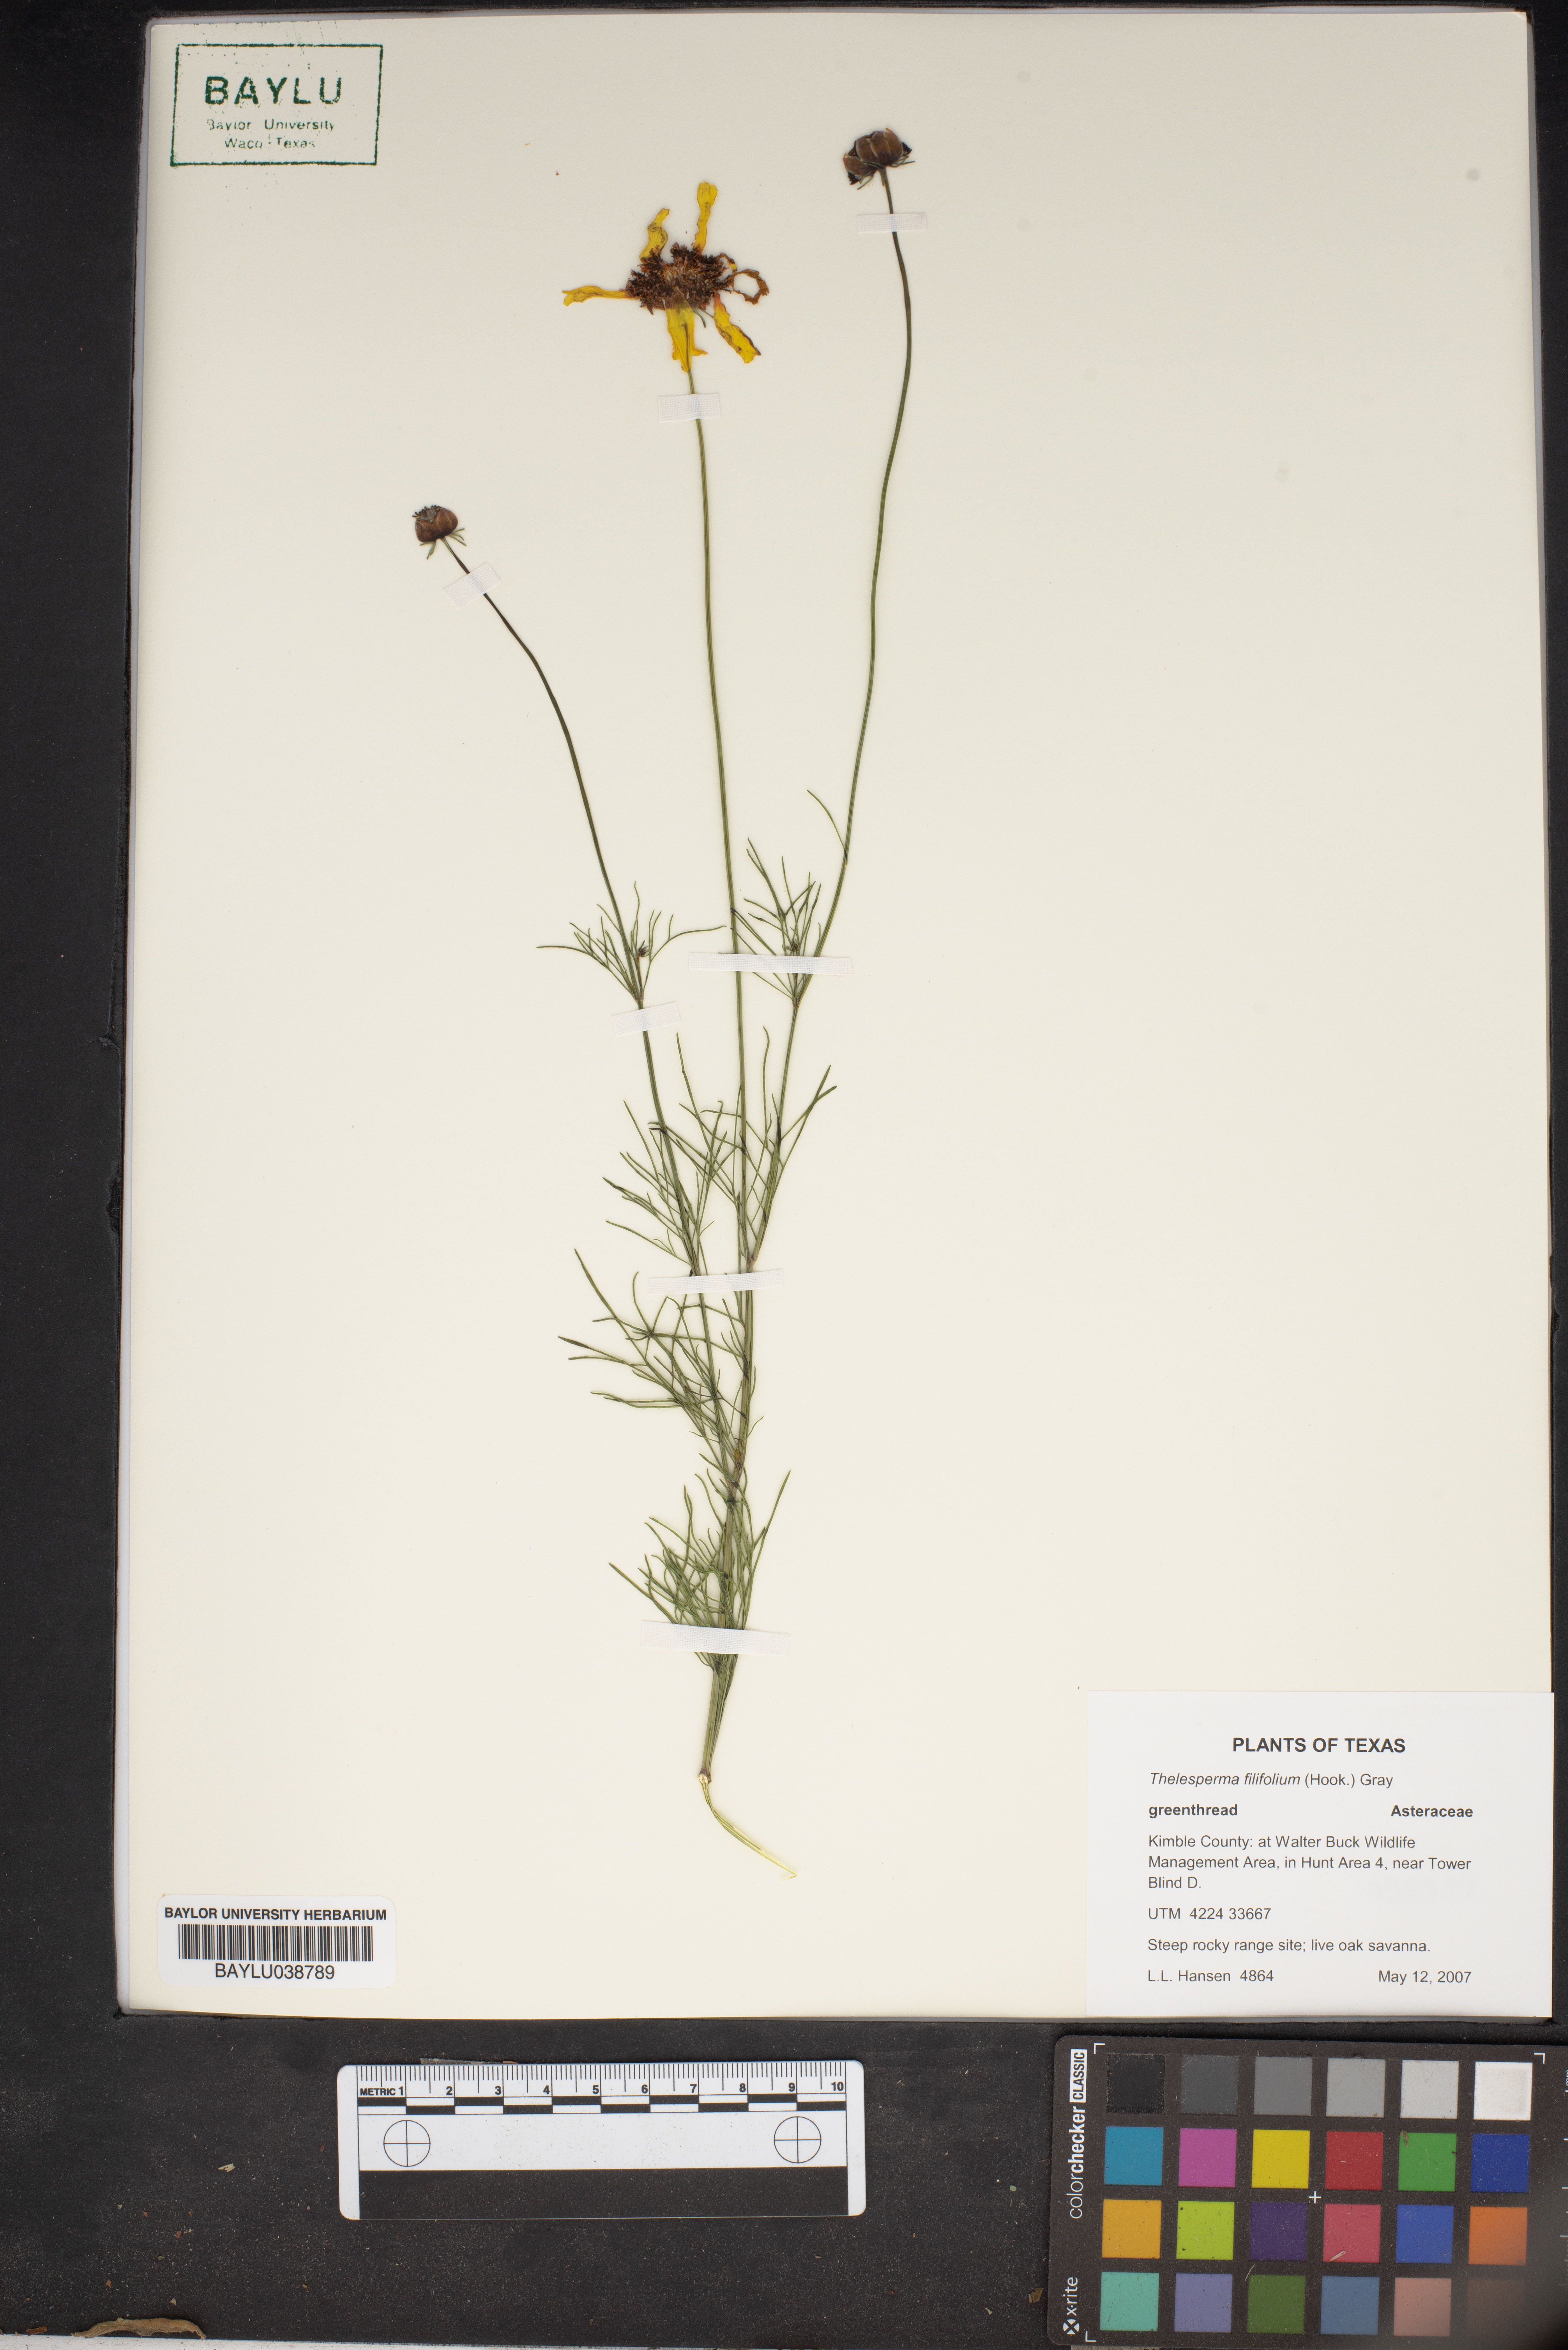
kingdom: Plantae
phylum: Tracheophyta
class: Magnoliopsida
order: Asterales
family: Asteraceae
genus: Thelesperma
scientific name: Thelesperma filifolium
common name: Stiff greenthread
